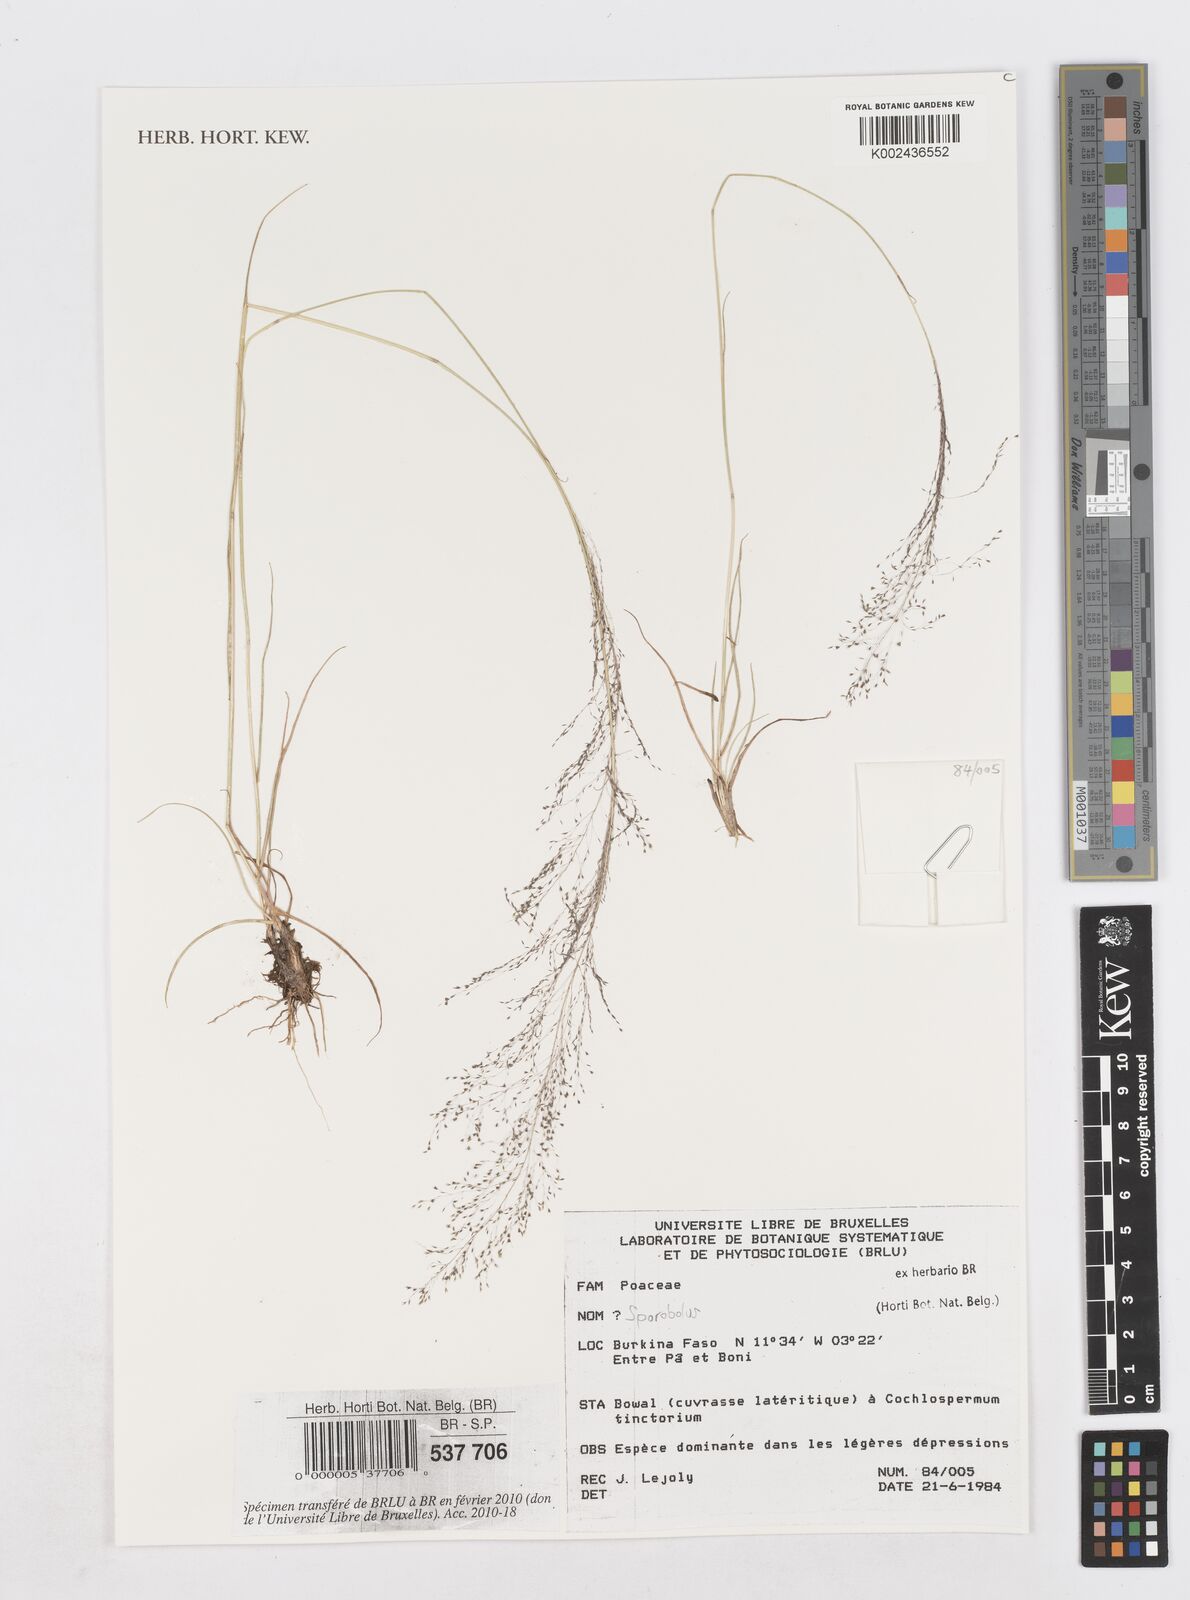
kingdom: Plantae
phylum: Tracheophyta
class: Liliopsida
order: Poales
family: Poaceae
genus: Sporobolus
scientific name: Sporobolus
